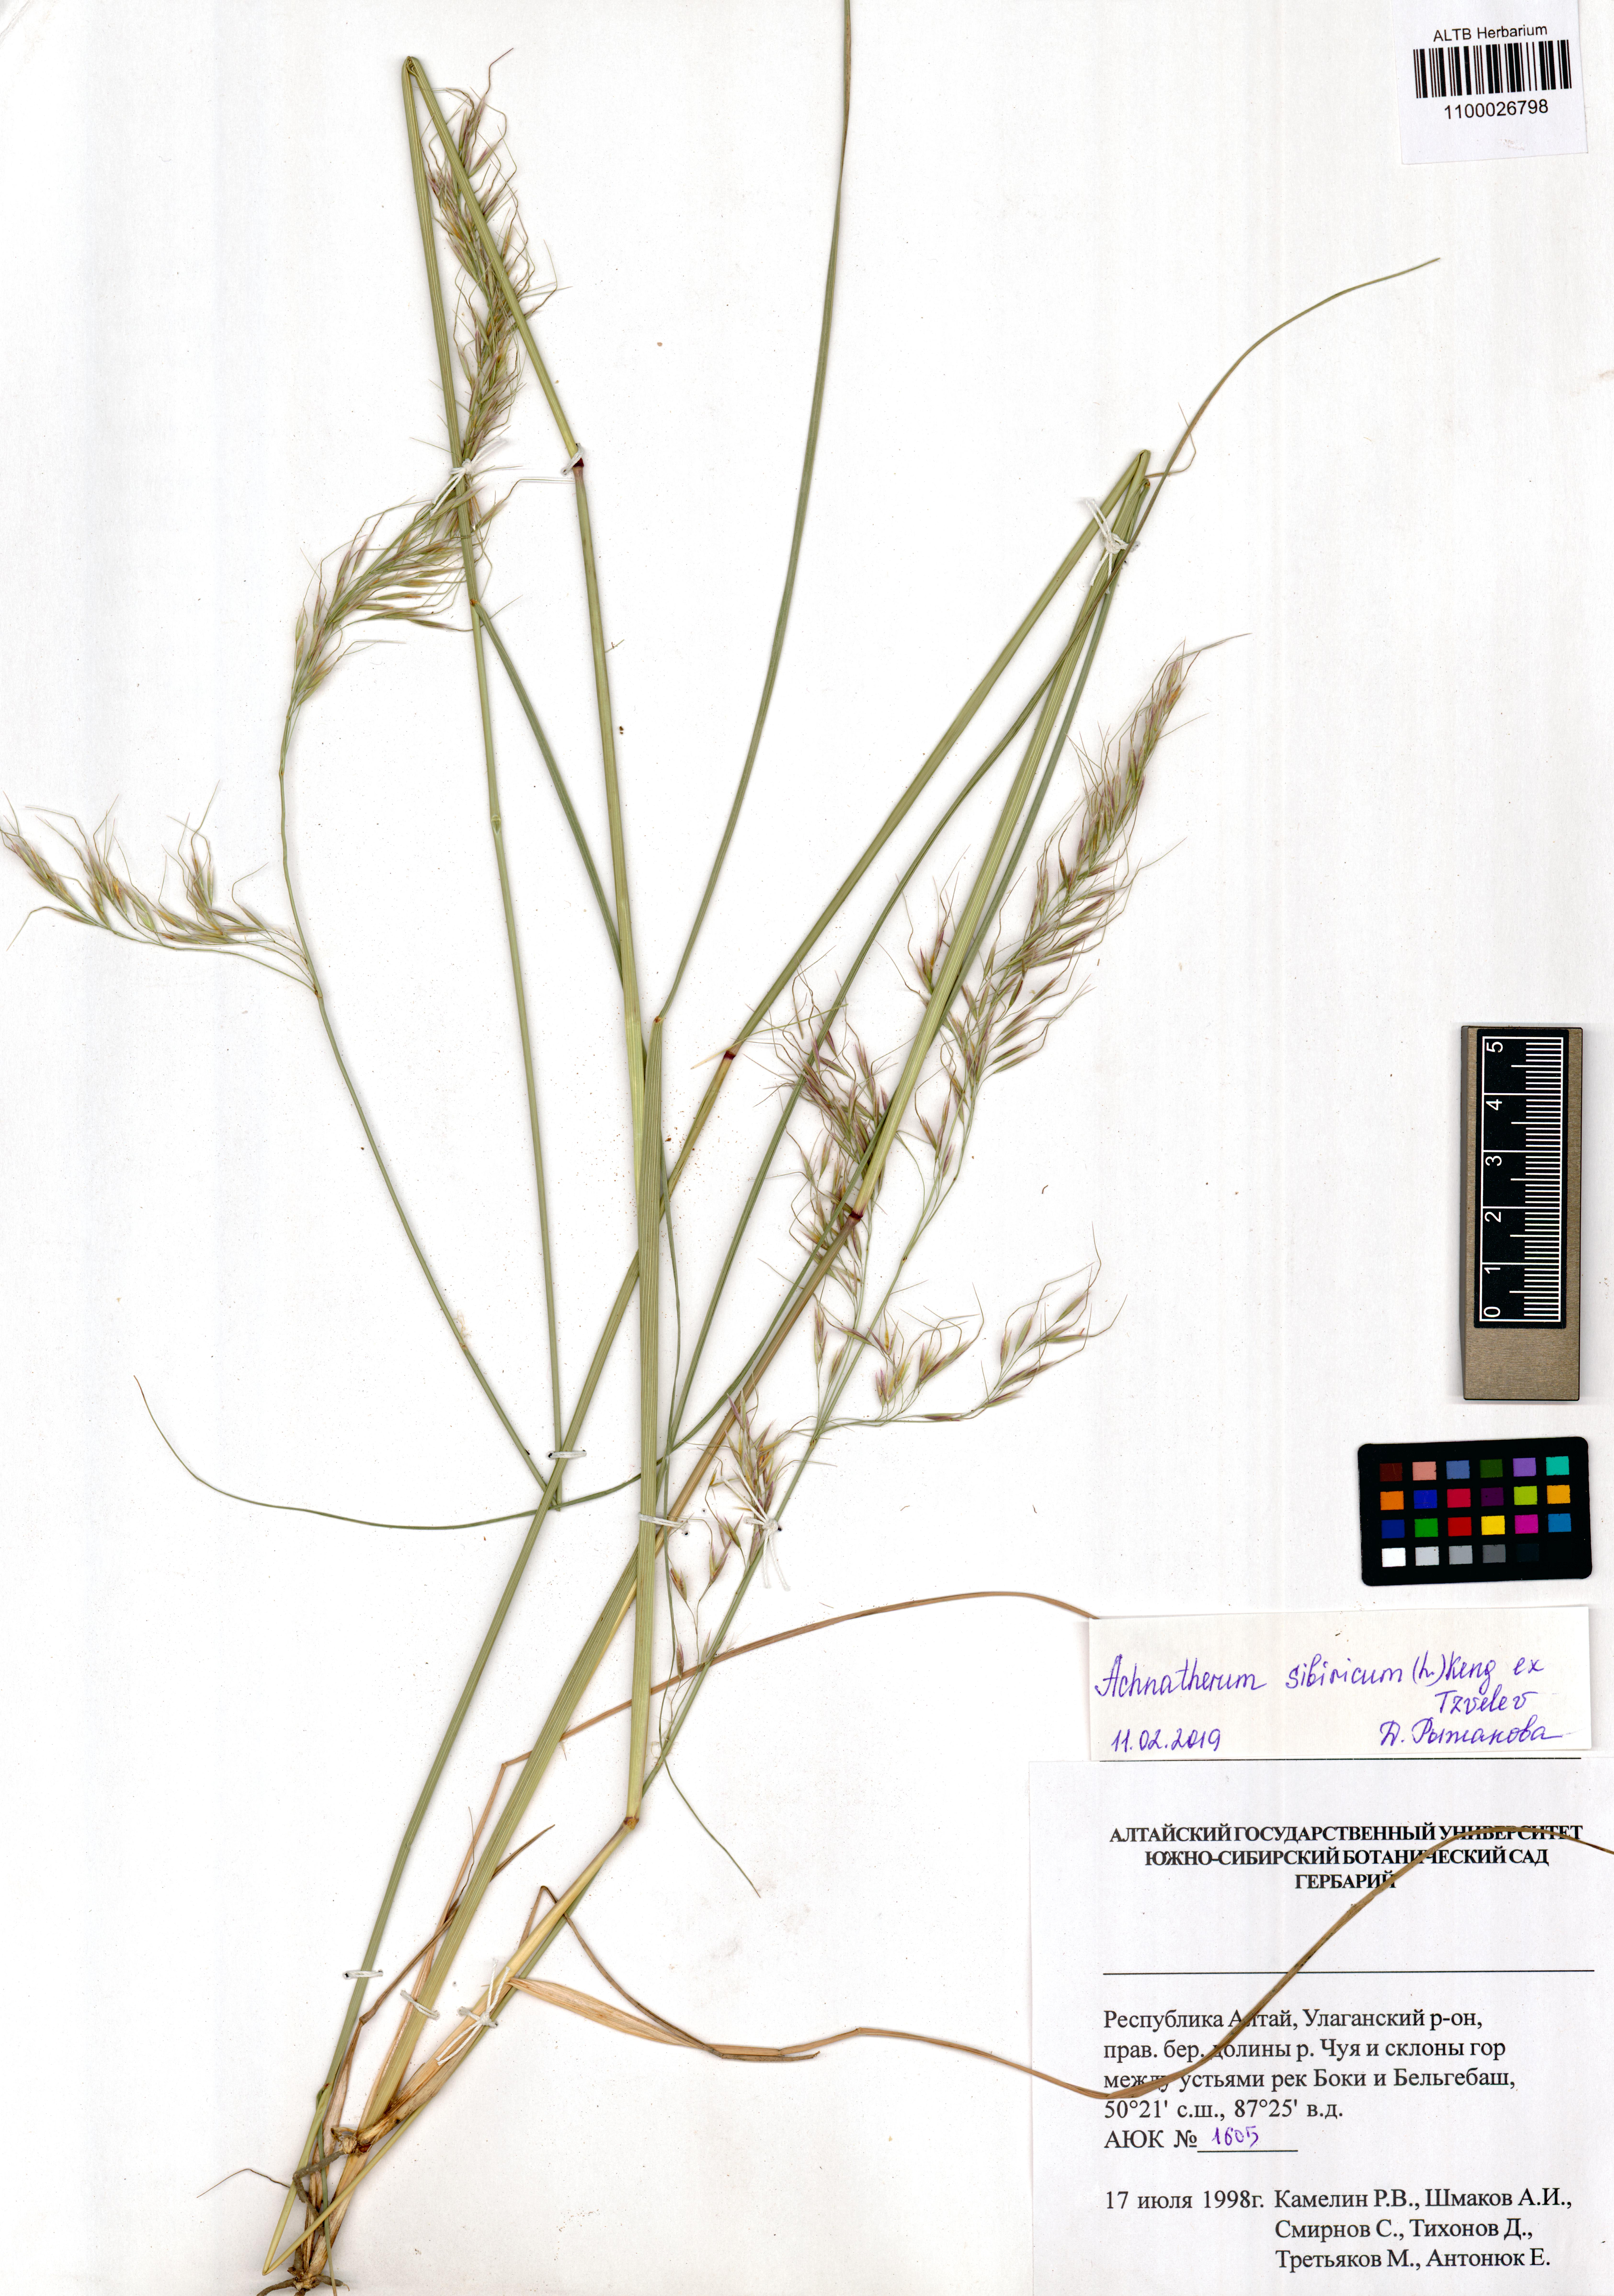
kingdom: Plantae
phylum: Tracheophyta
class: Liliopsida
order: Poales
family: Poaceae
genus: Achnatherum
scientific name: Achnatherum sibiricum
